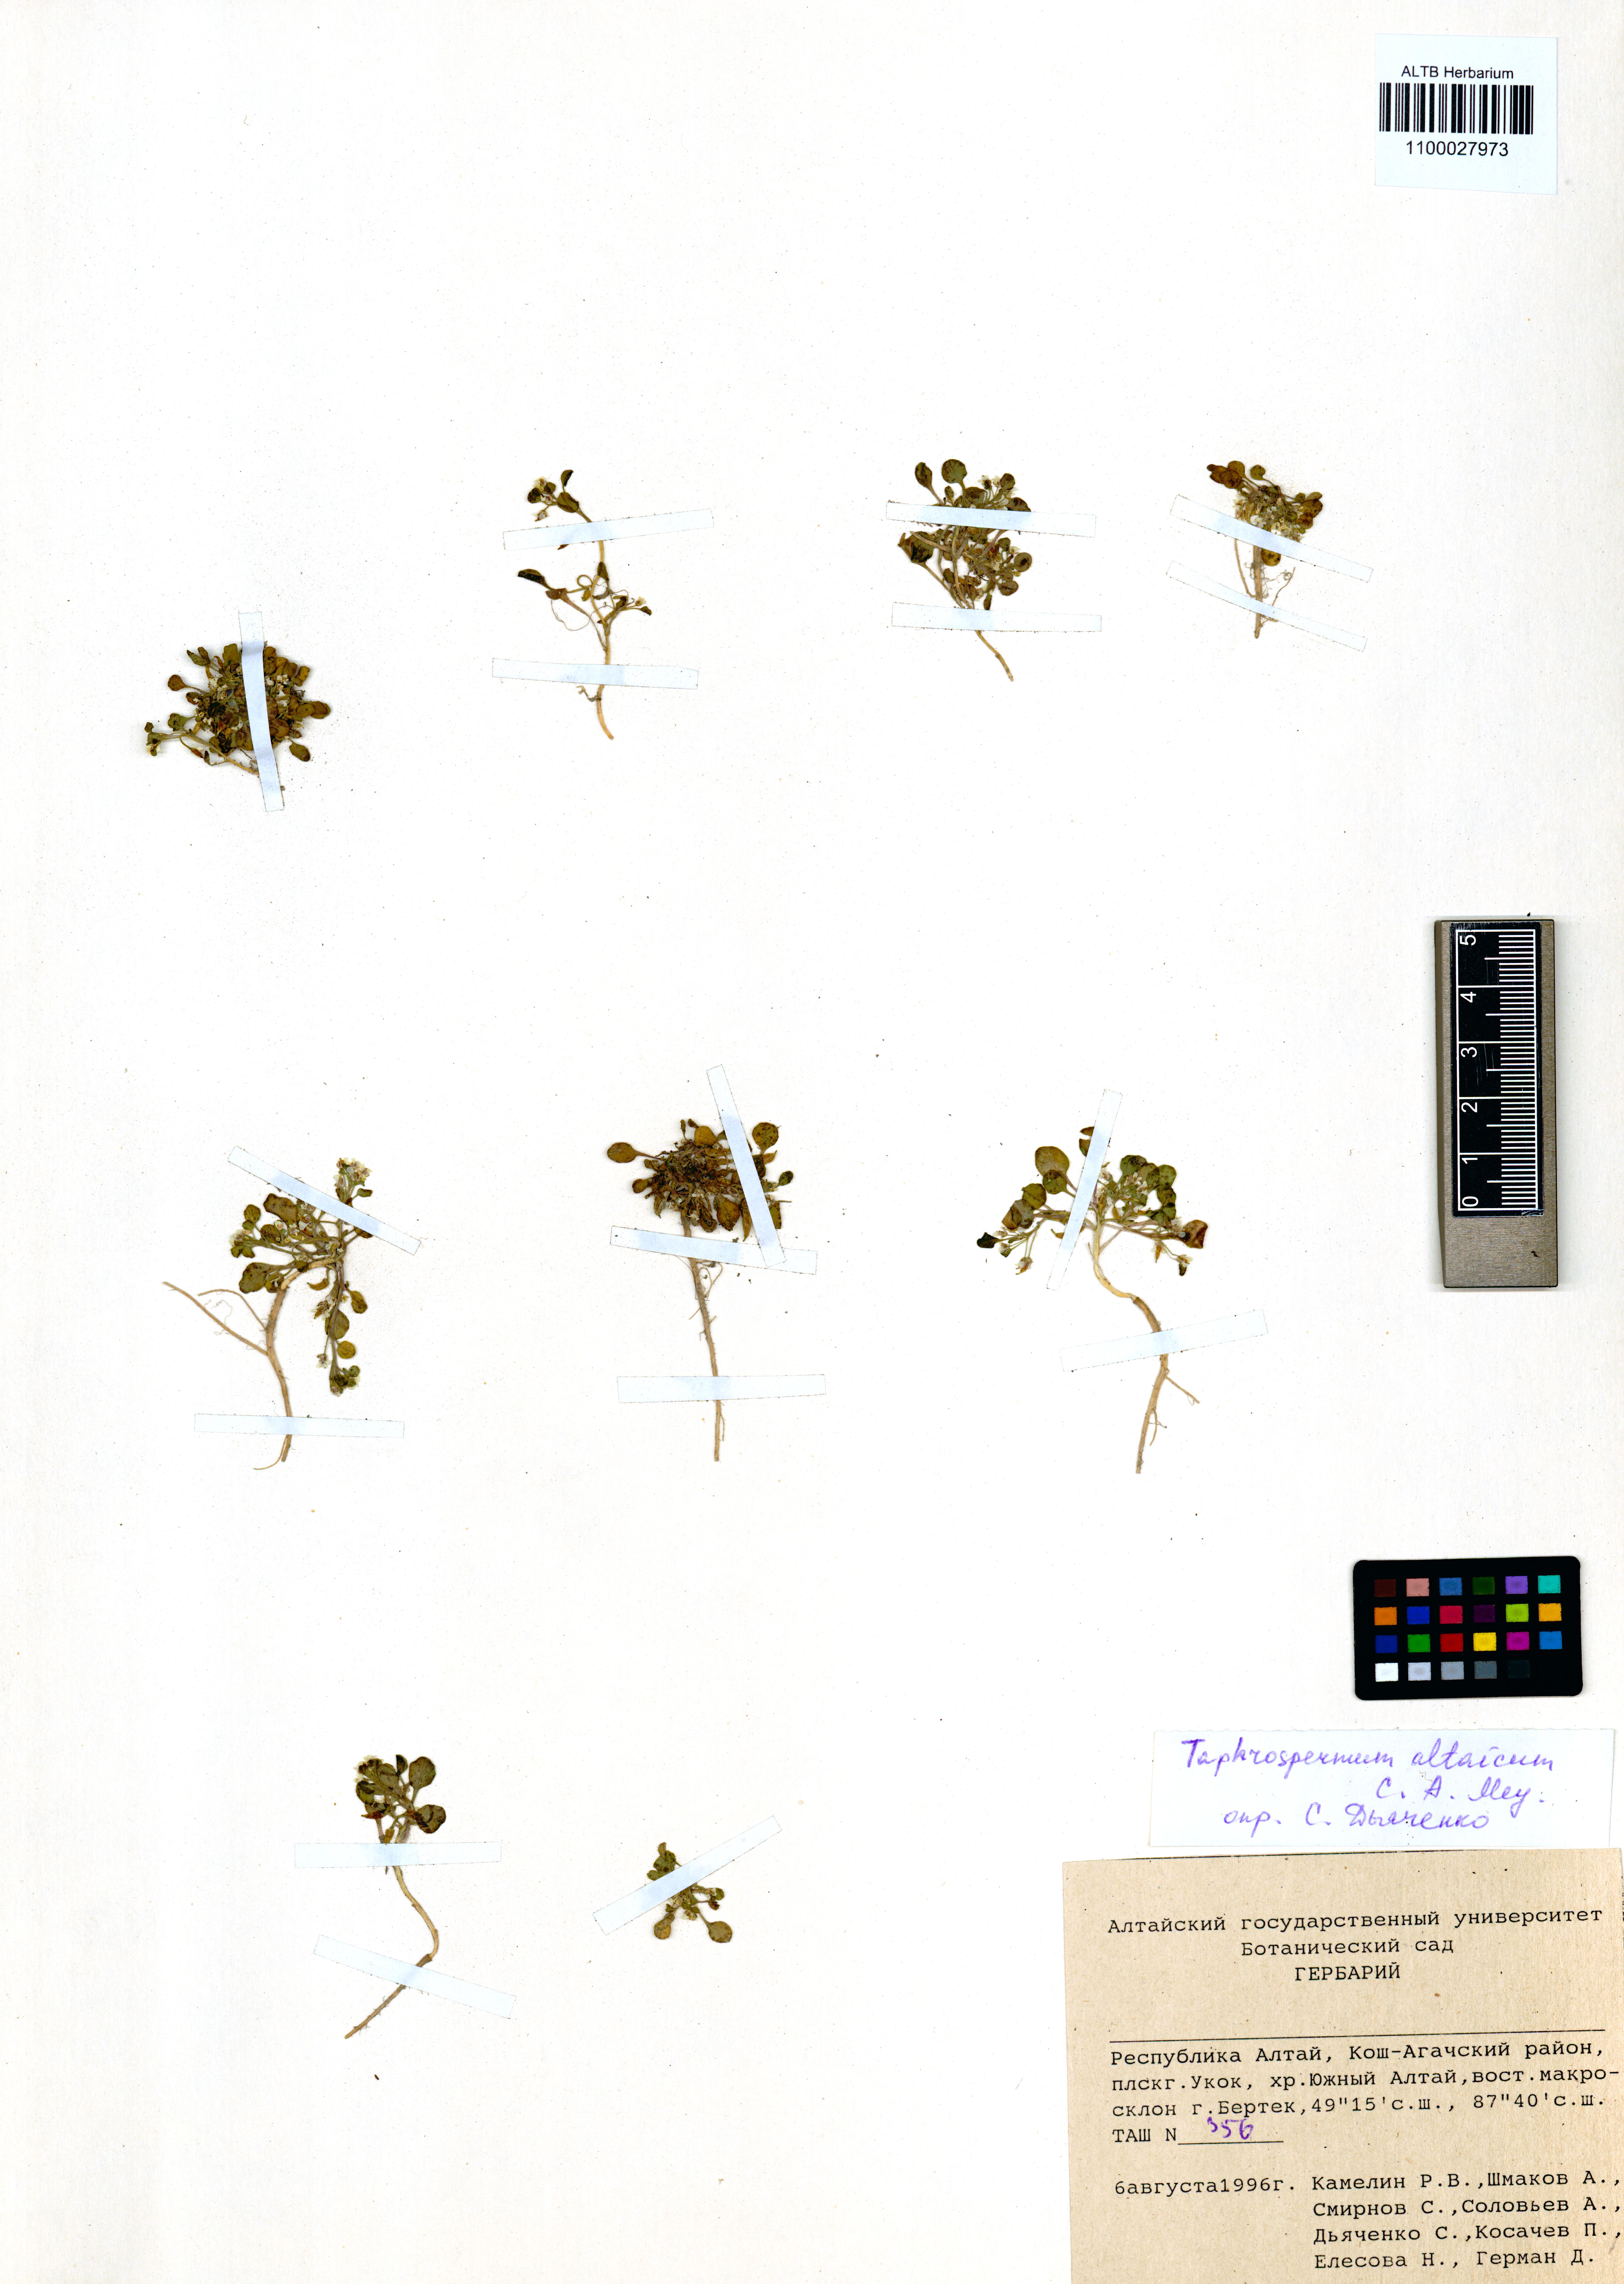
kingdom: Plantae
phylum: Tracheophyta
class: Magnoliopsida
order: Brassicales
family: Brassicaceae
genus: Eutrema
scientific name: Eutrema altaicum
